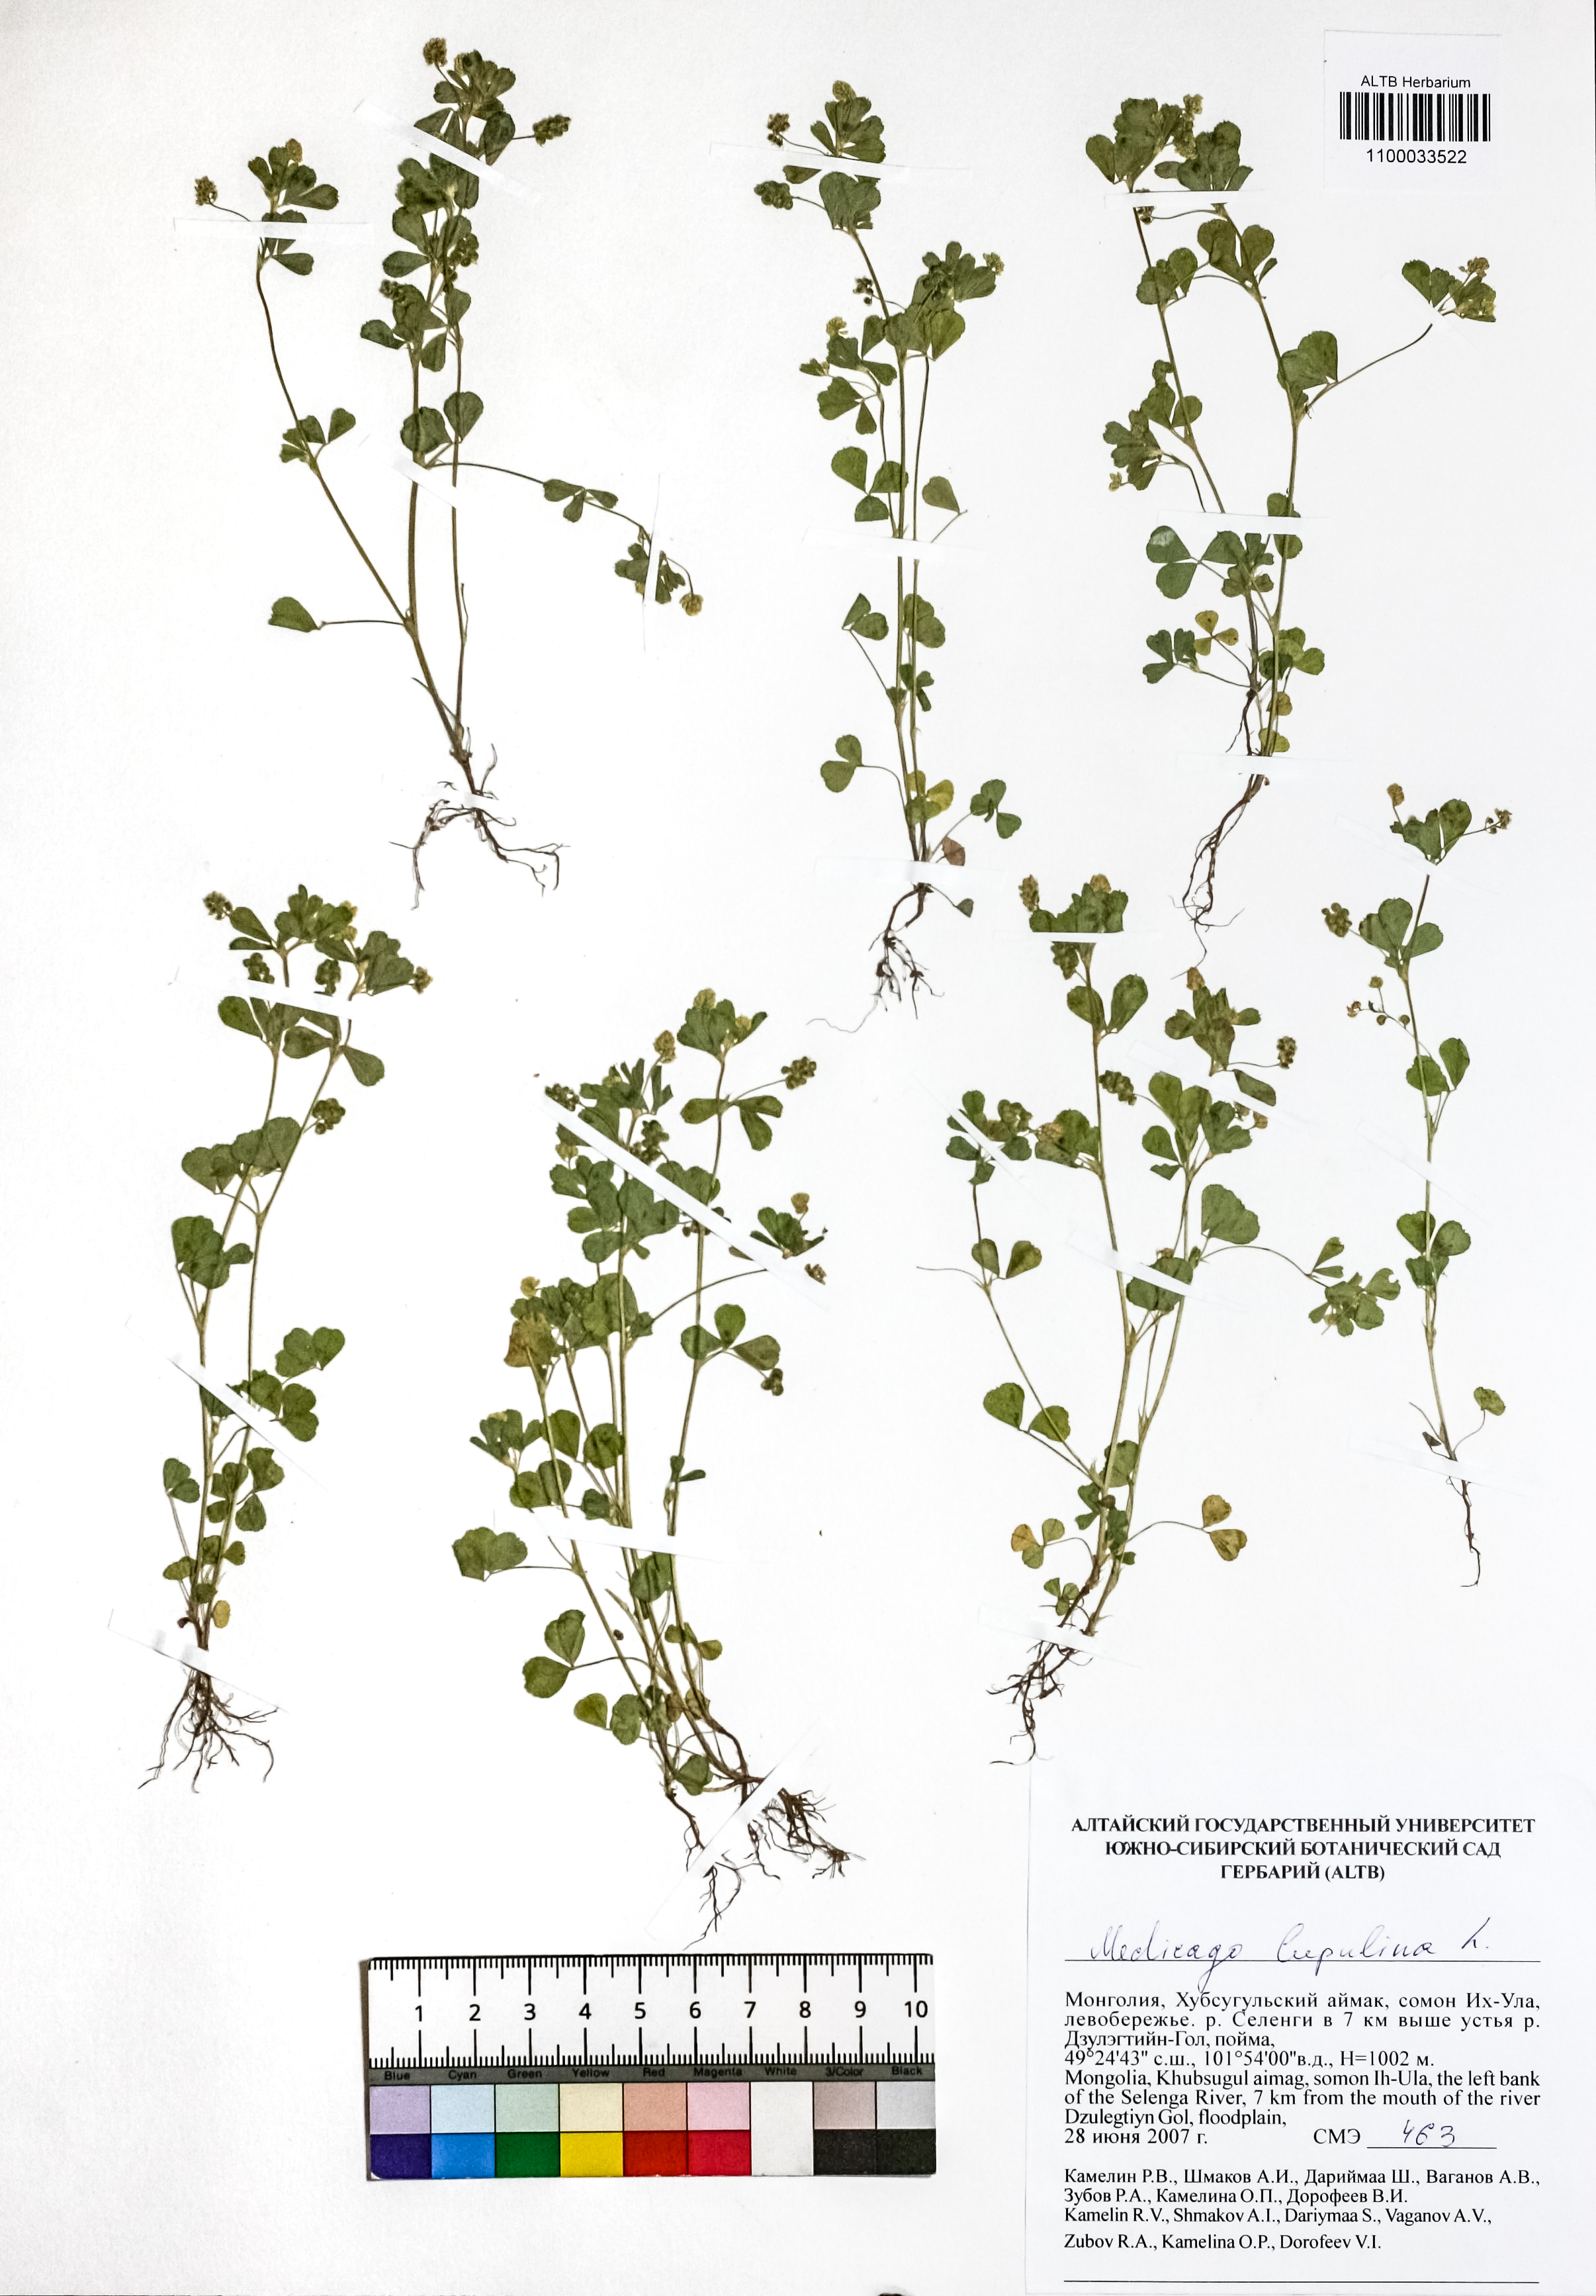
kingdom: Plantae
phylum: Tracheophyta
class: Magnoliopsida
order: Fabales
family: Fabaceae
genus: Medicago
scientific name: Medicago lupulina
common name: Black medick
